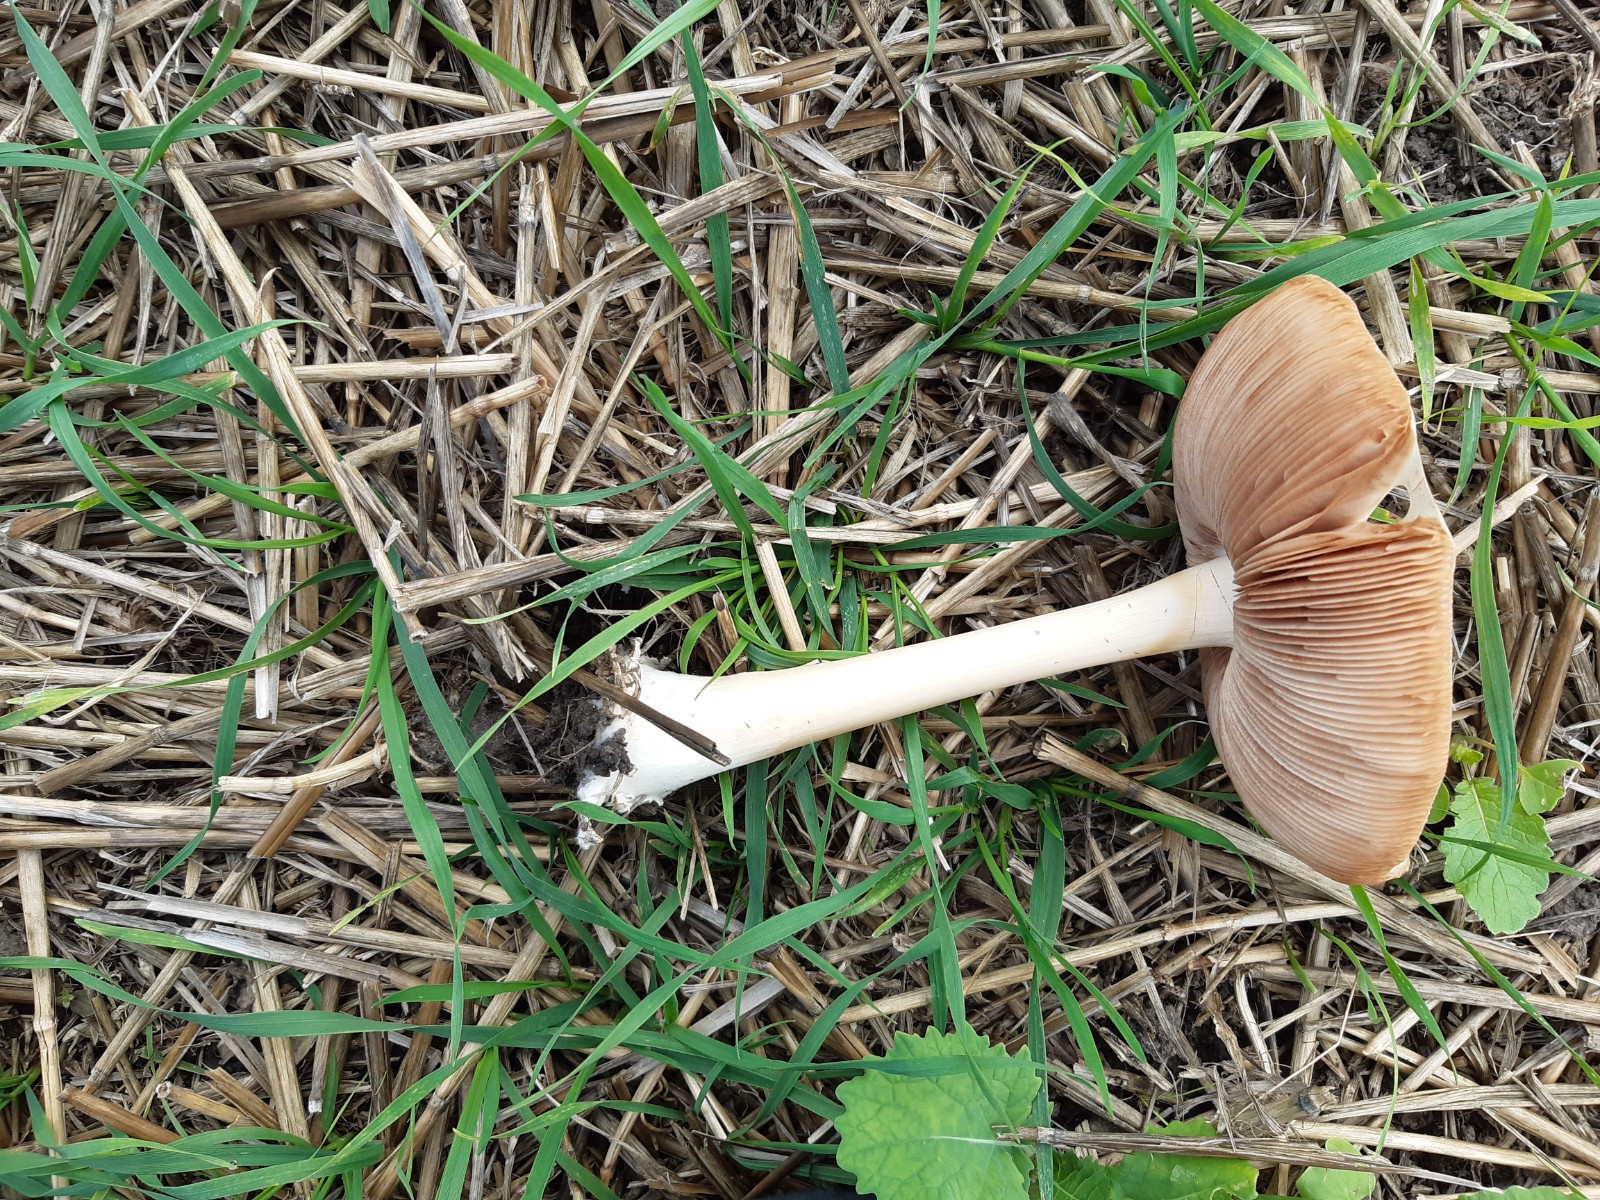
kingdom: Fungi
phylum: Basidiomycota
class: Agaricomycetes
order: Agaricales
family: Pluteaceae
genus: Volvopluteus
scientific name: Volvopluteus gloiocephalus
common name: høj posesvamp
